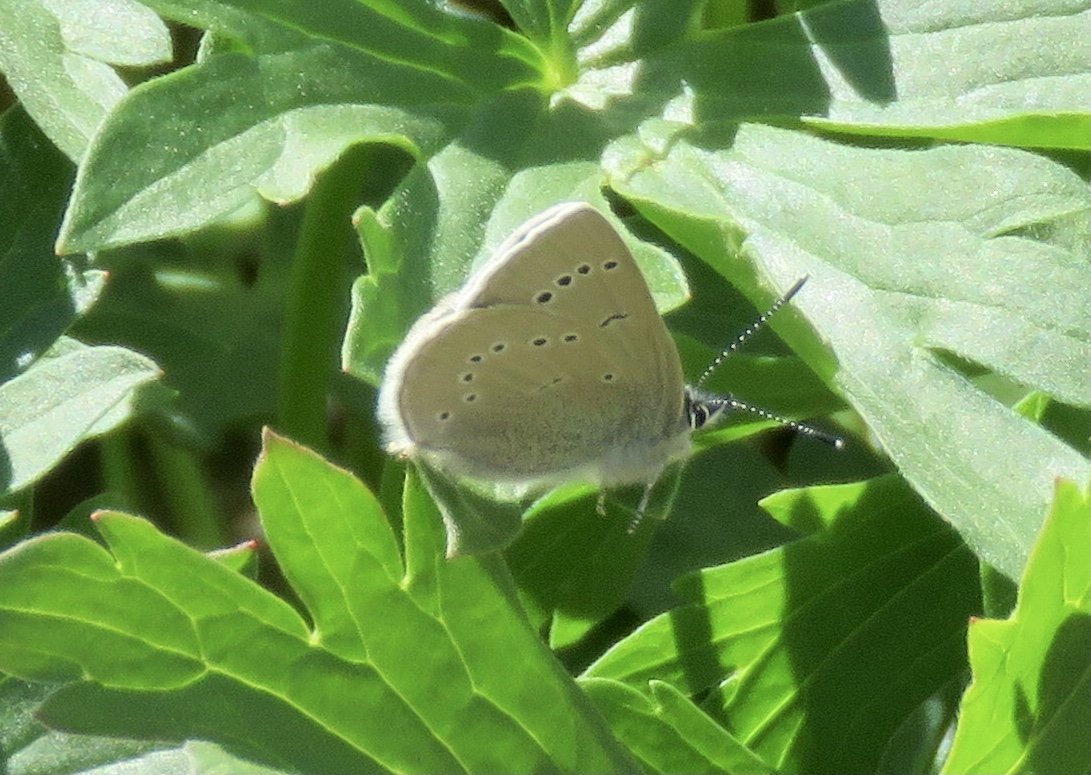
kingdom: Animalia
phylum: Arthropoda
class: Insecta
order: Lepidoptera
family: Lycaenidae
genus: Glaucopsyche
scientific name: Glaucopsyche lygdamus
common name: Silvery Blue
